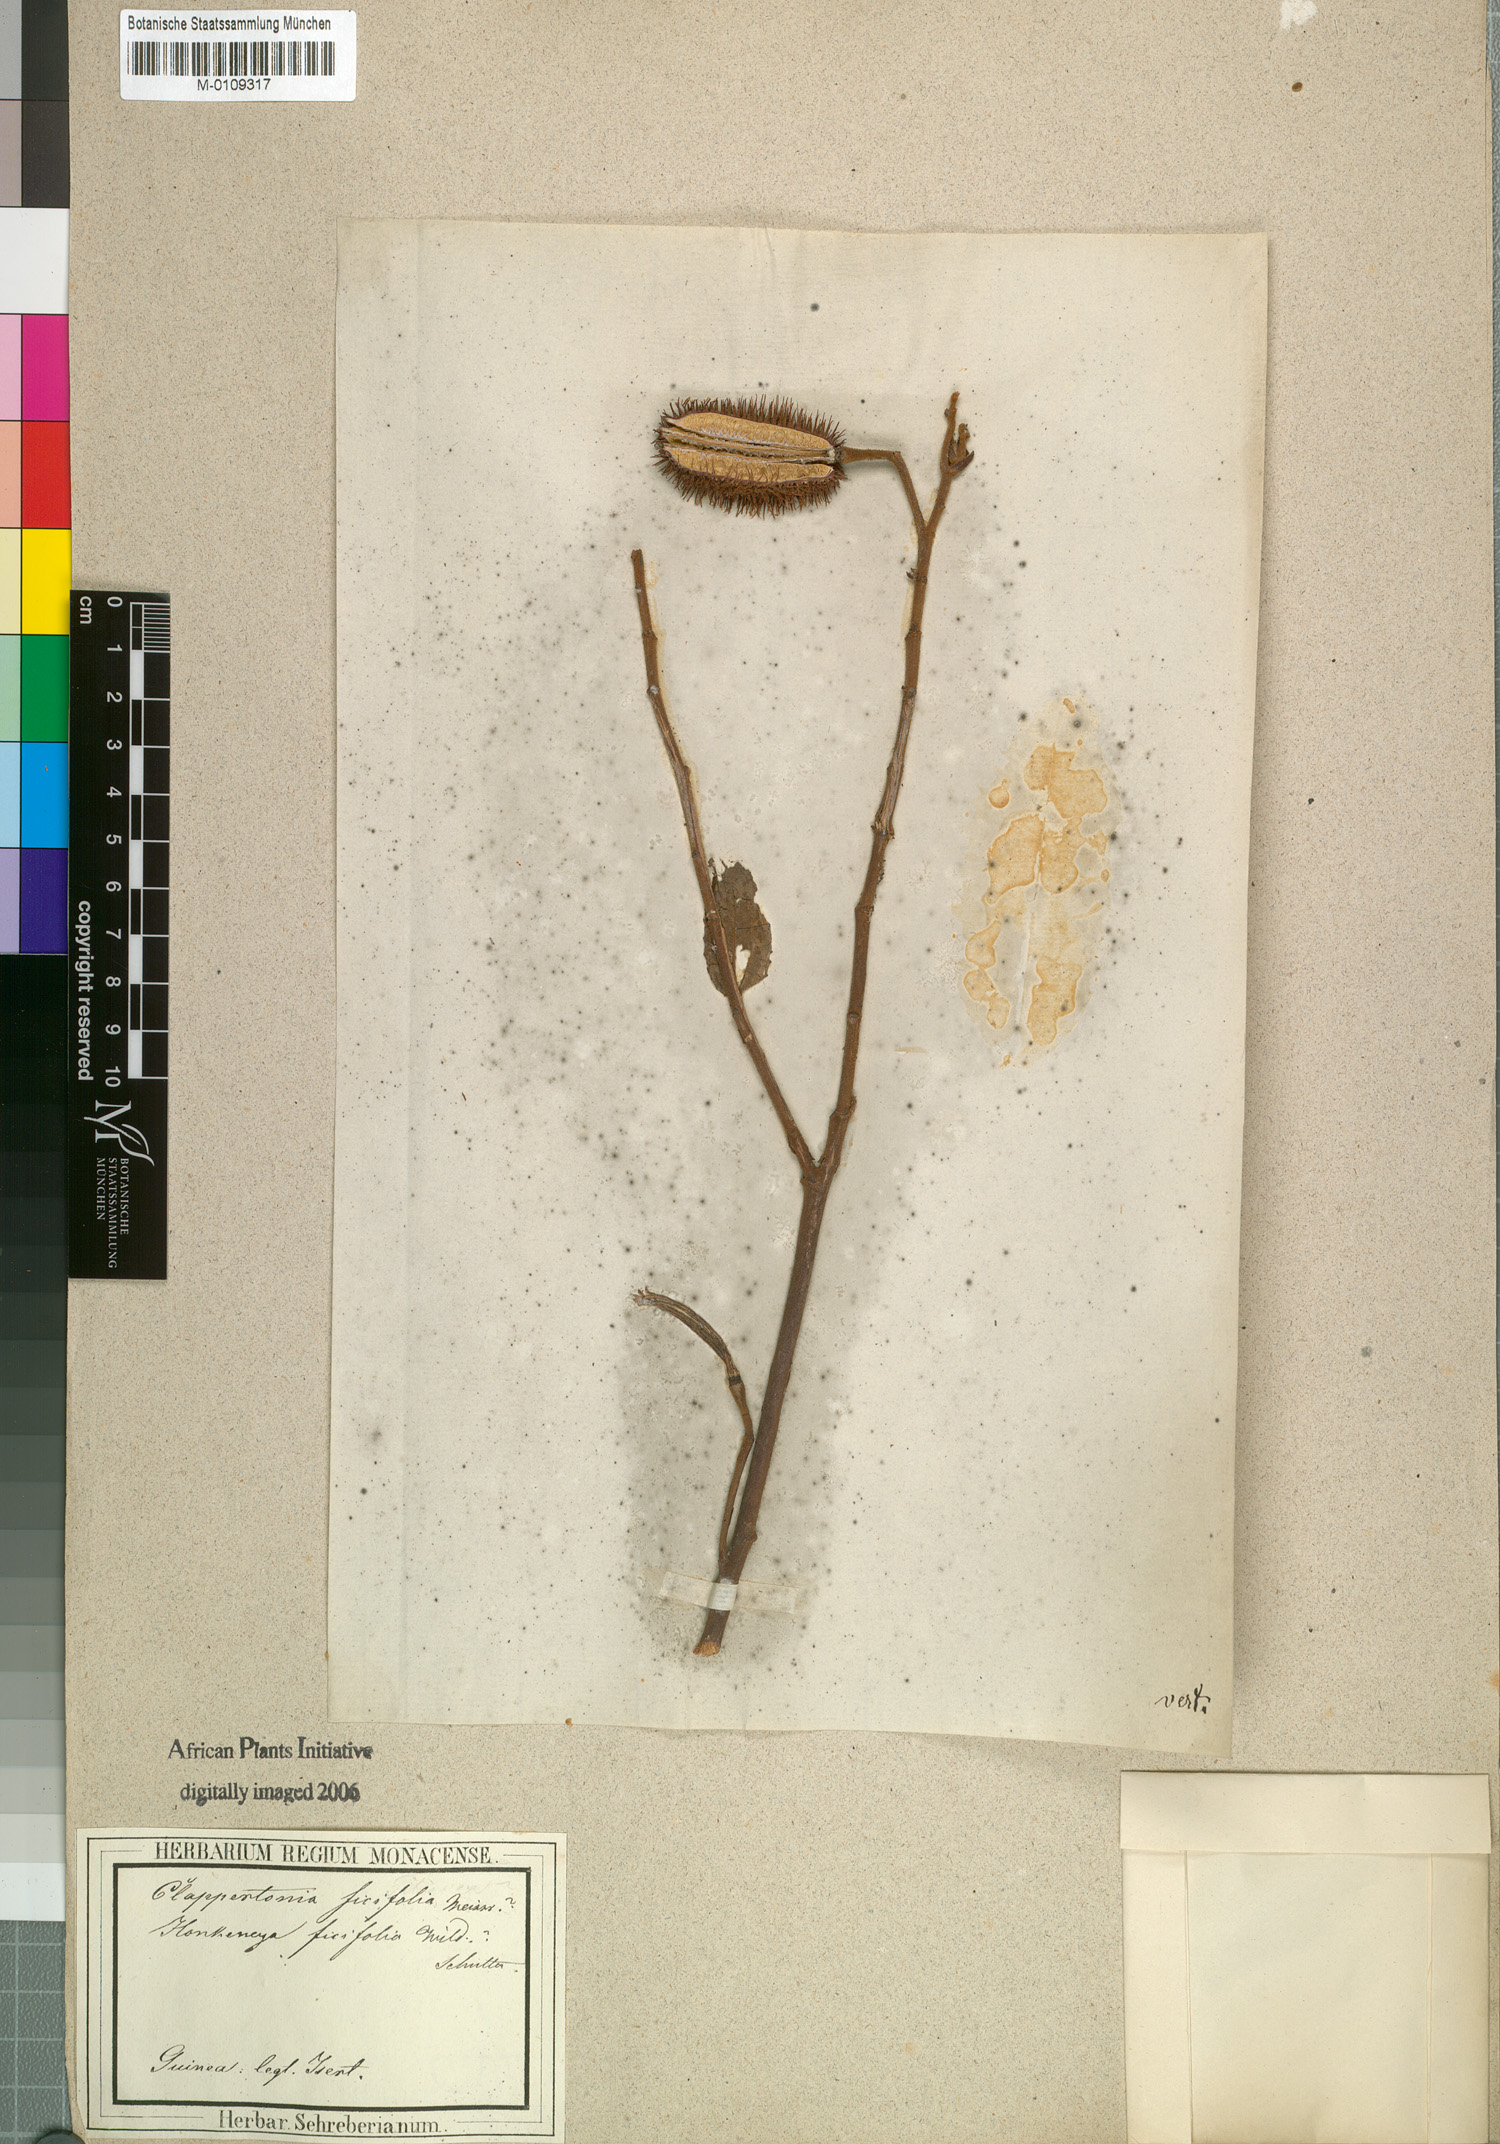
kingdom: Plantae
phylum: Tracheophyta
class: Magnoliopsida
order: Malvales
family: Malvaceae
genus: Clappertonia
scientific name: Clappertonia ficifolia
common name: Bolo-bolo
